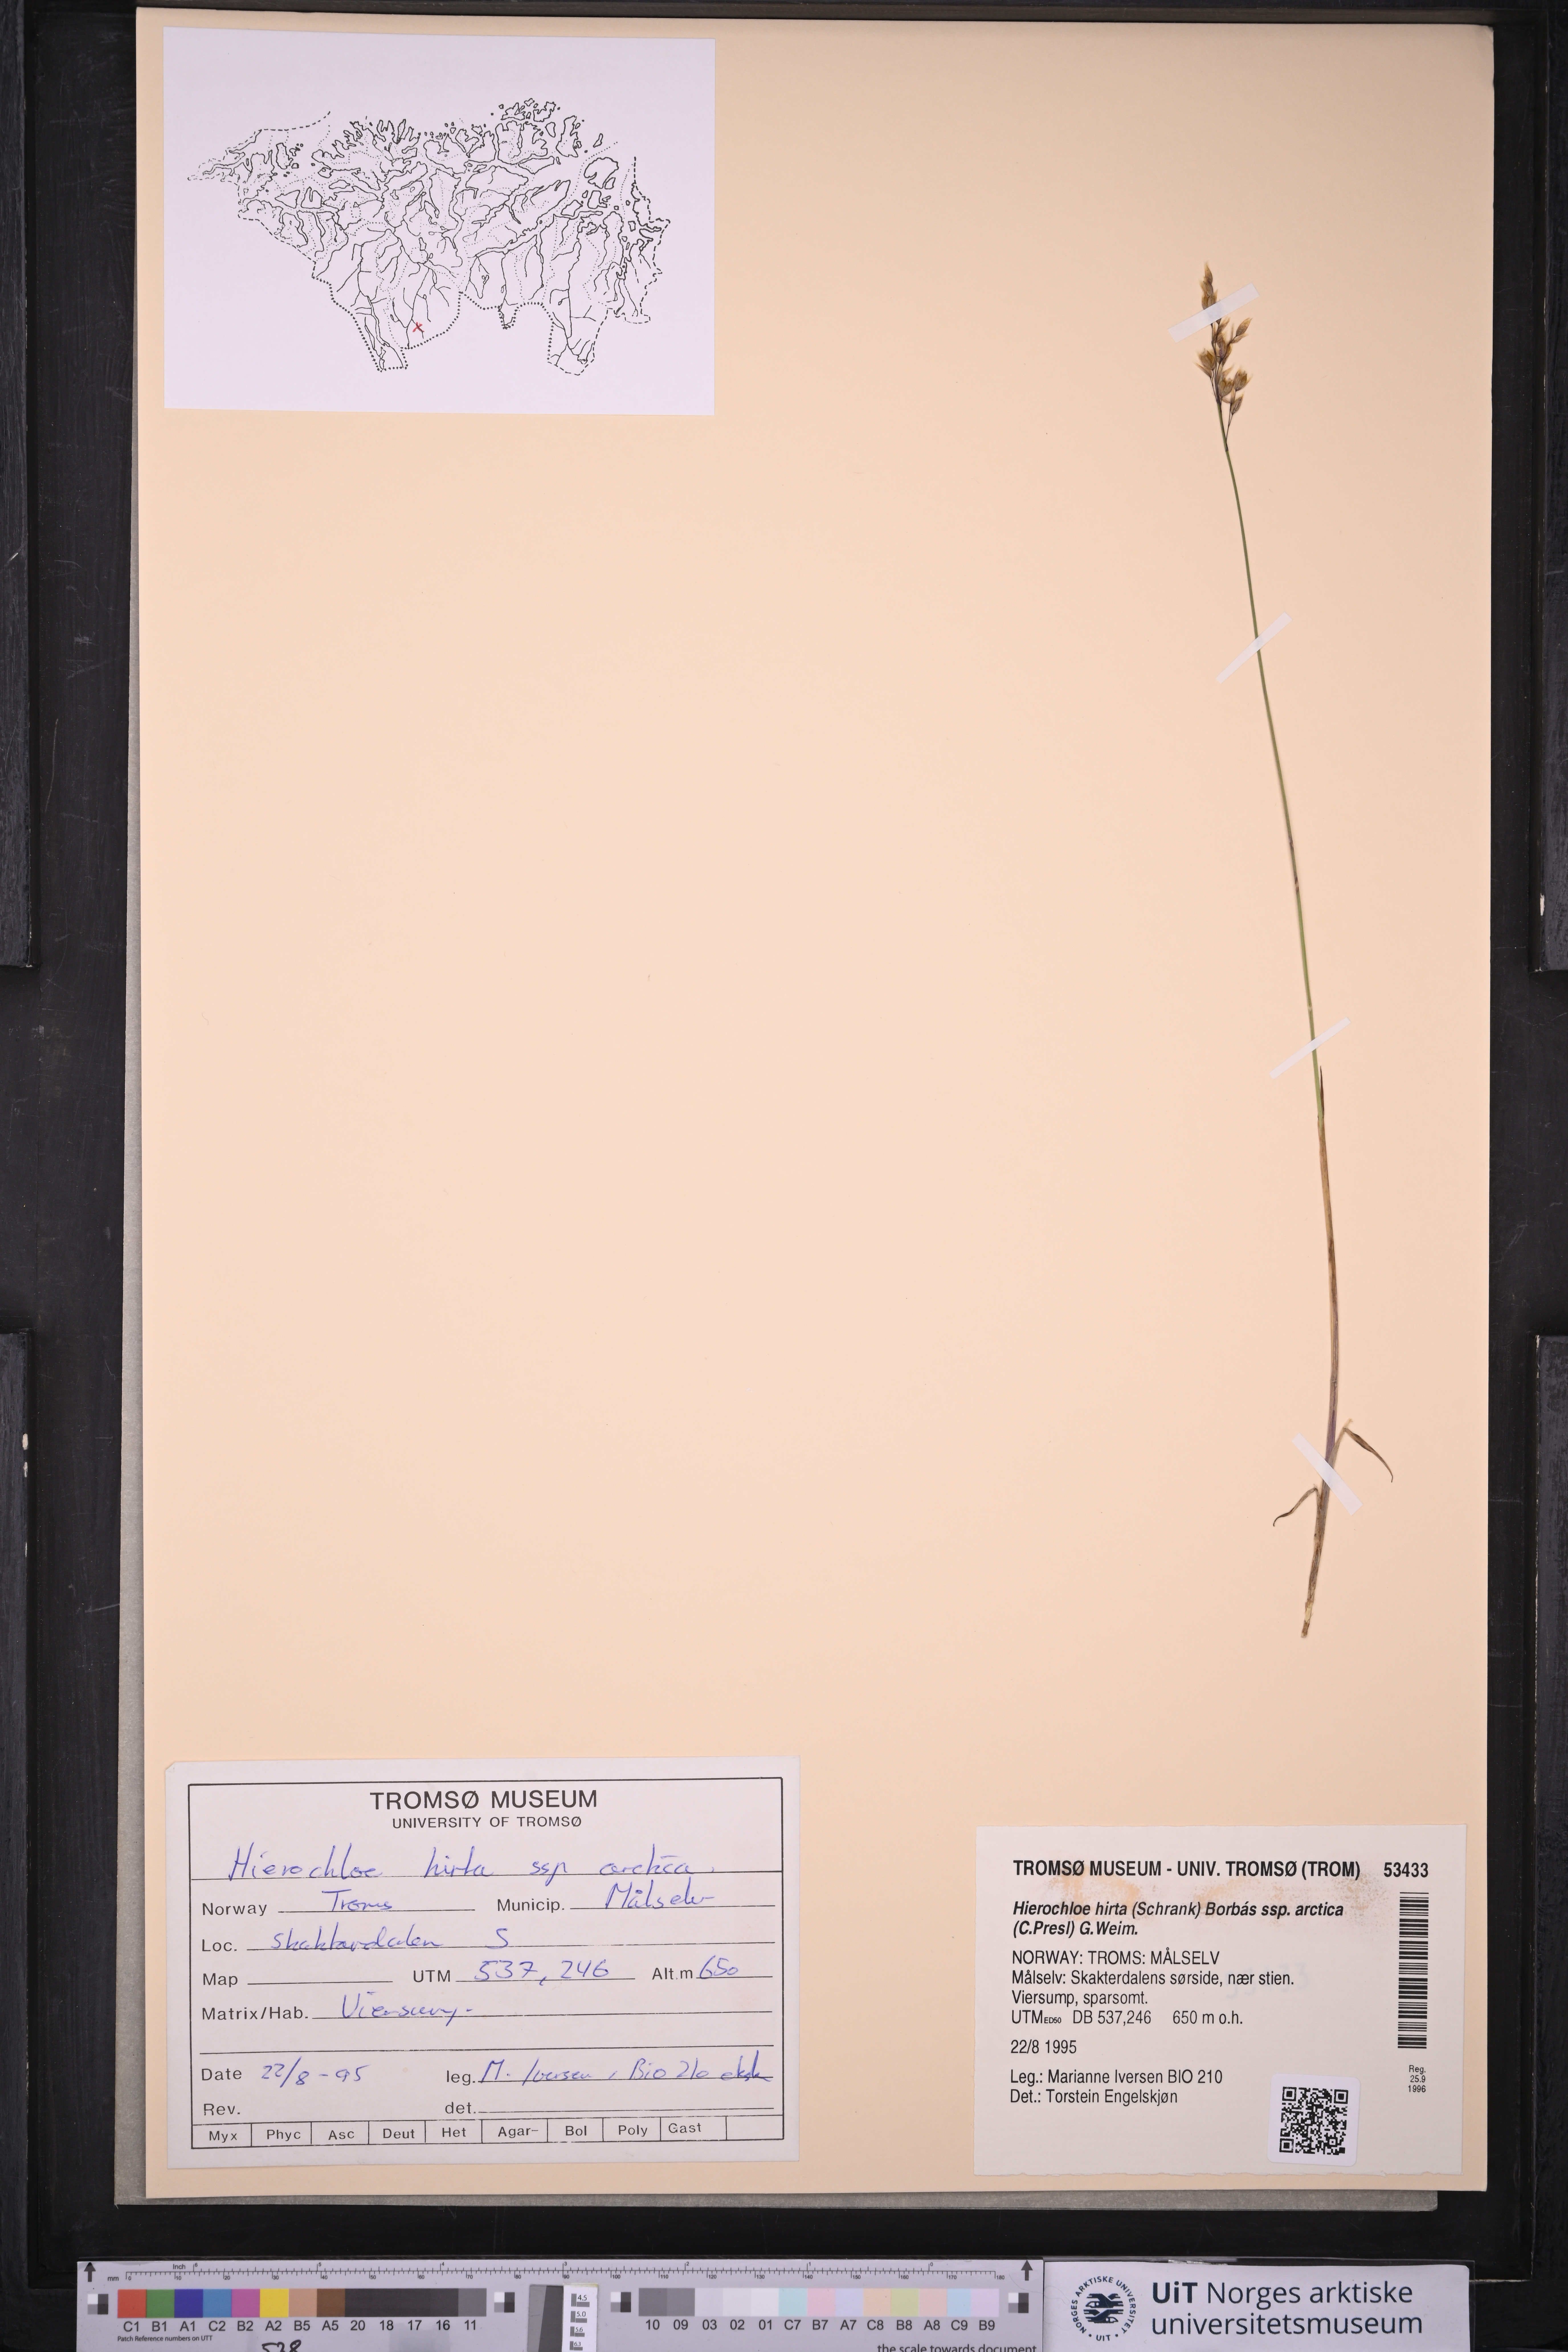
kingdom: Plantae
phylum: Tracheophyta
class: Liliopsida
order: Poales
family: Poaceae
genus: Anthoxanthum
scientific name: Anthoxanthum nitens
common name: Holy grass
